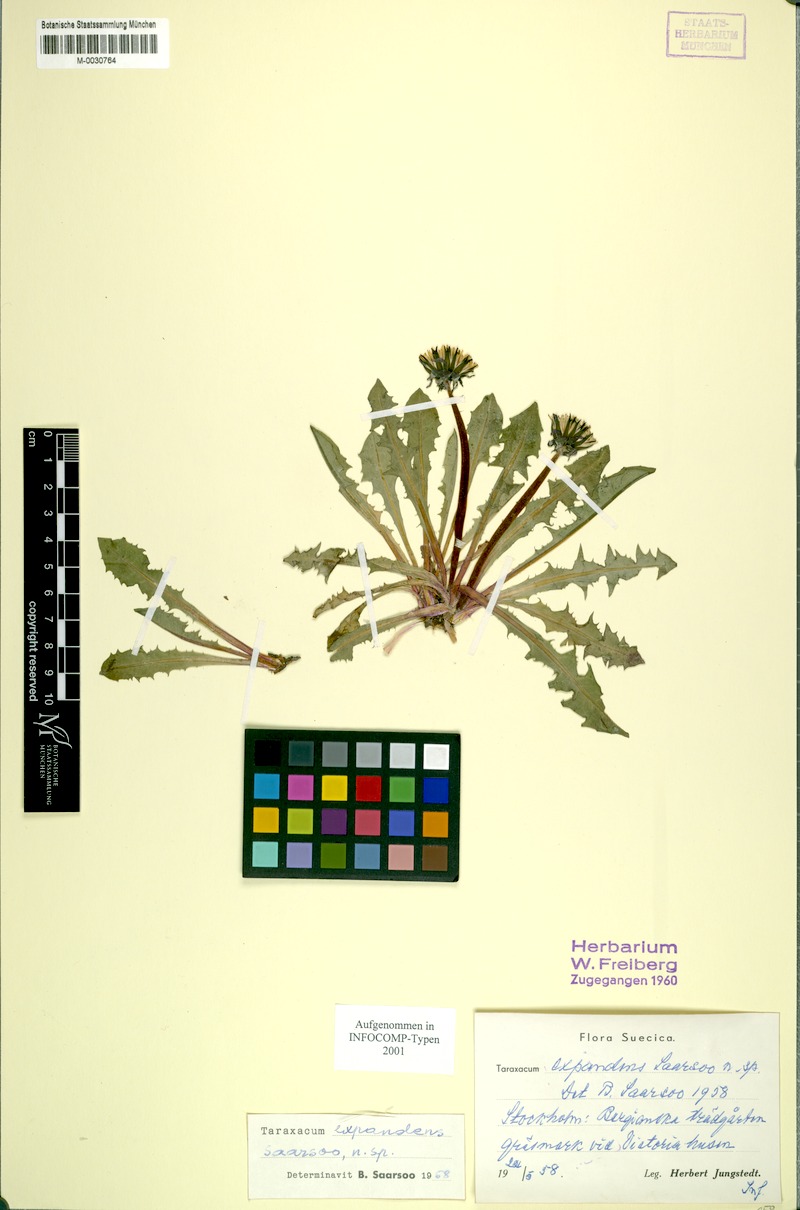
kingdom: Plantae
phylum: Tracheophyta
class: Magnoliopsida
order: Asterales
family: Asteraceae
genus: Taraxacum
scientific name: Taraxacum expandens
